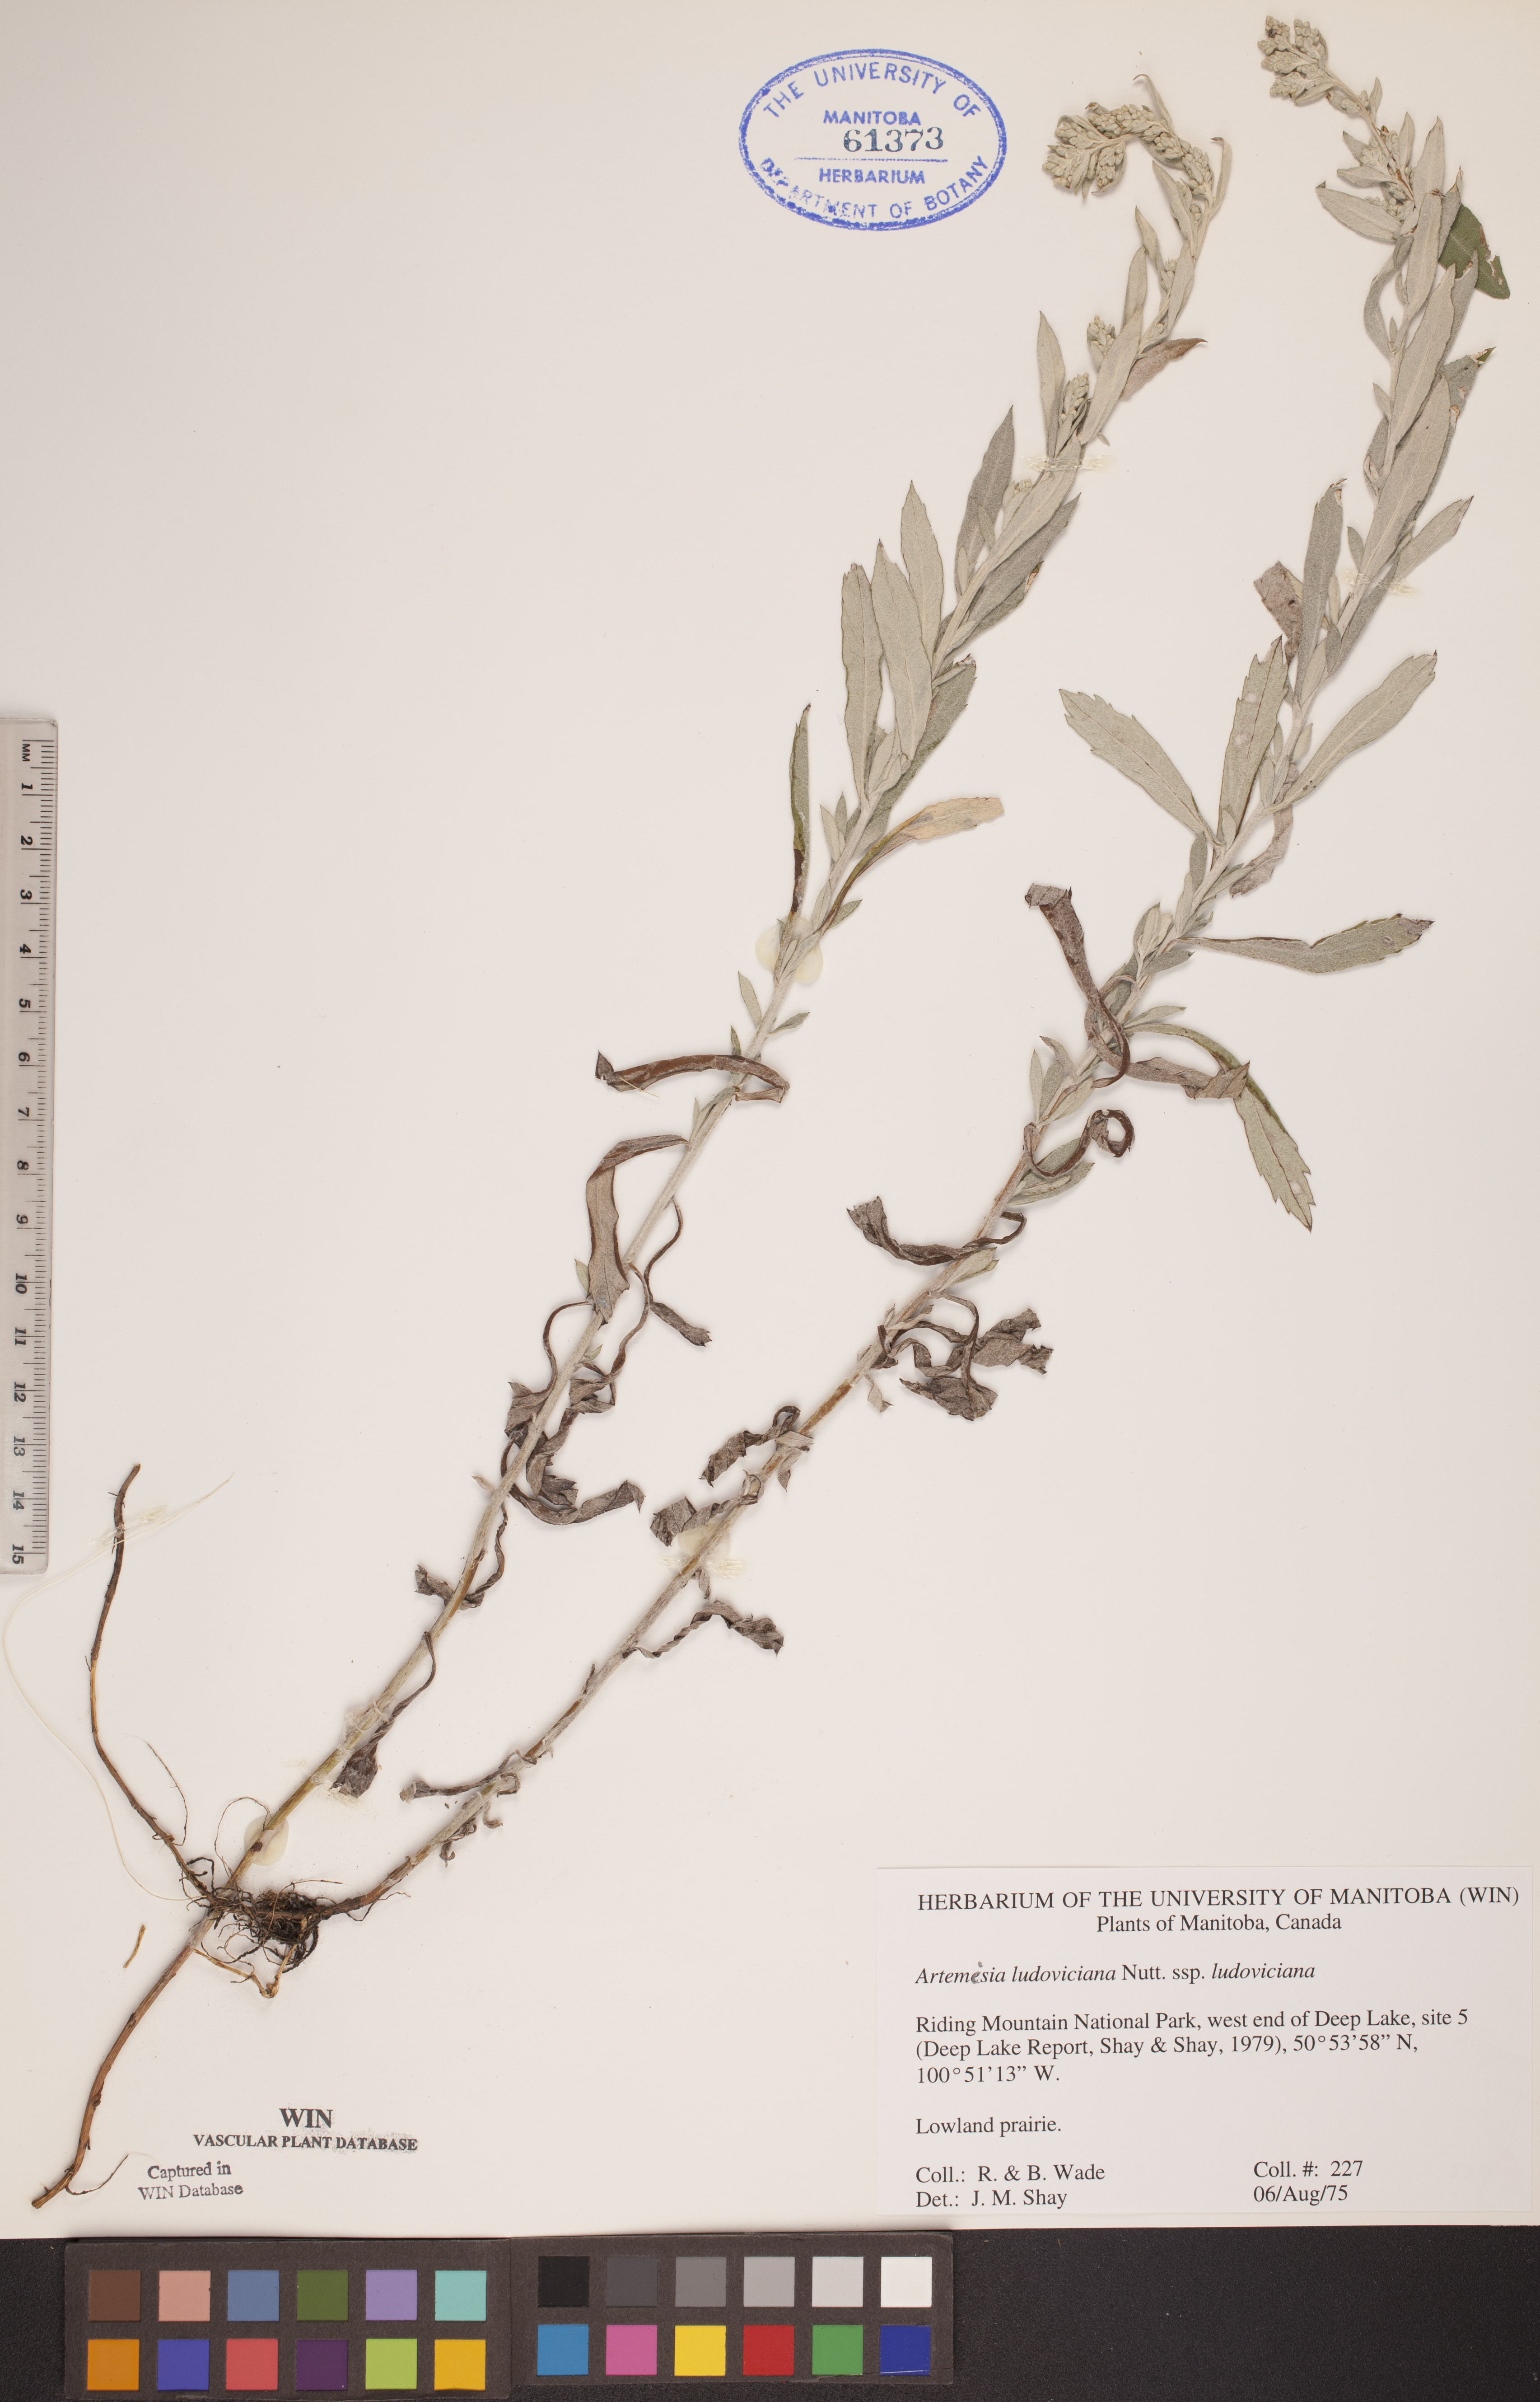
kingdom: Plantae
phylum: Tracheophyta
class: Magnoliopsida
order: Asterales
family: Asteraceae
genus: Artemisia
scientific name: Artemisia ludoviciana
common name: Western mugwort
